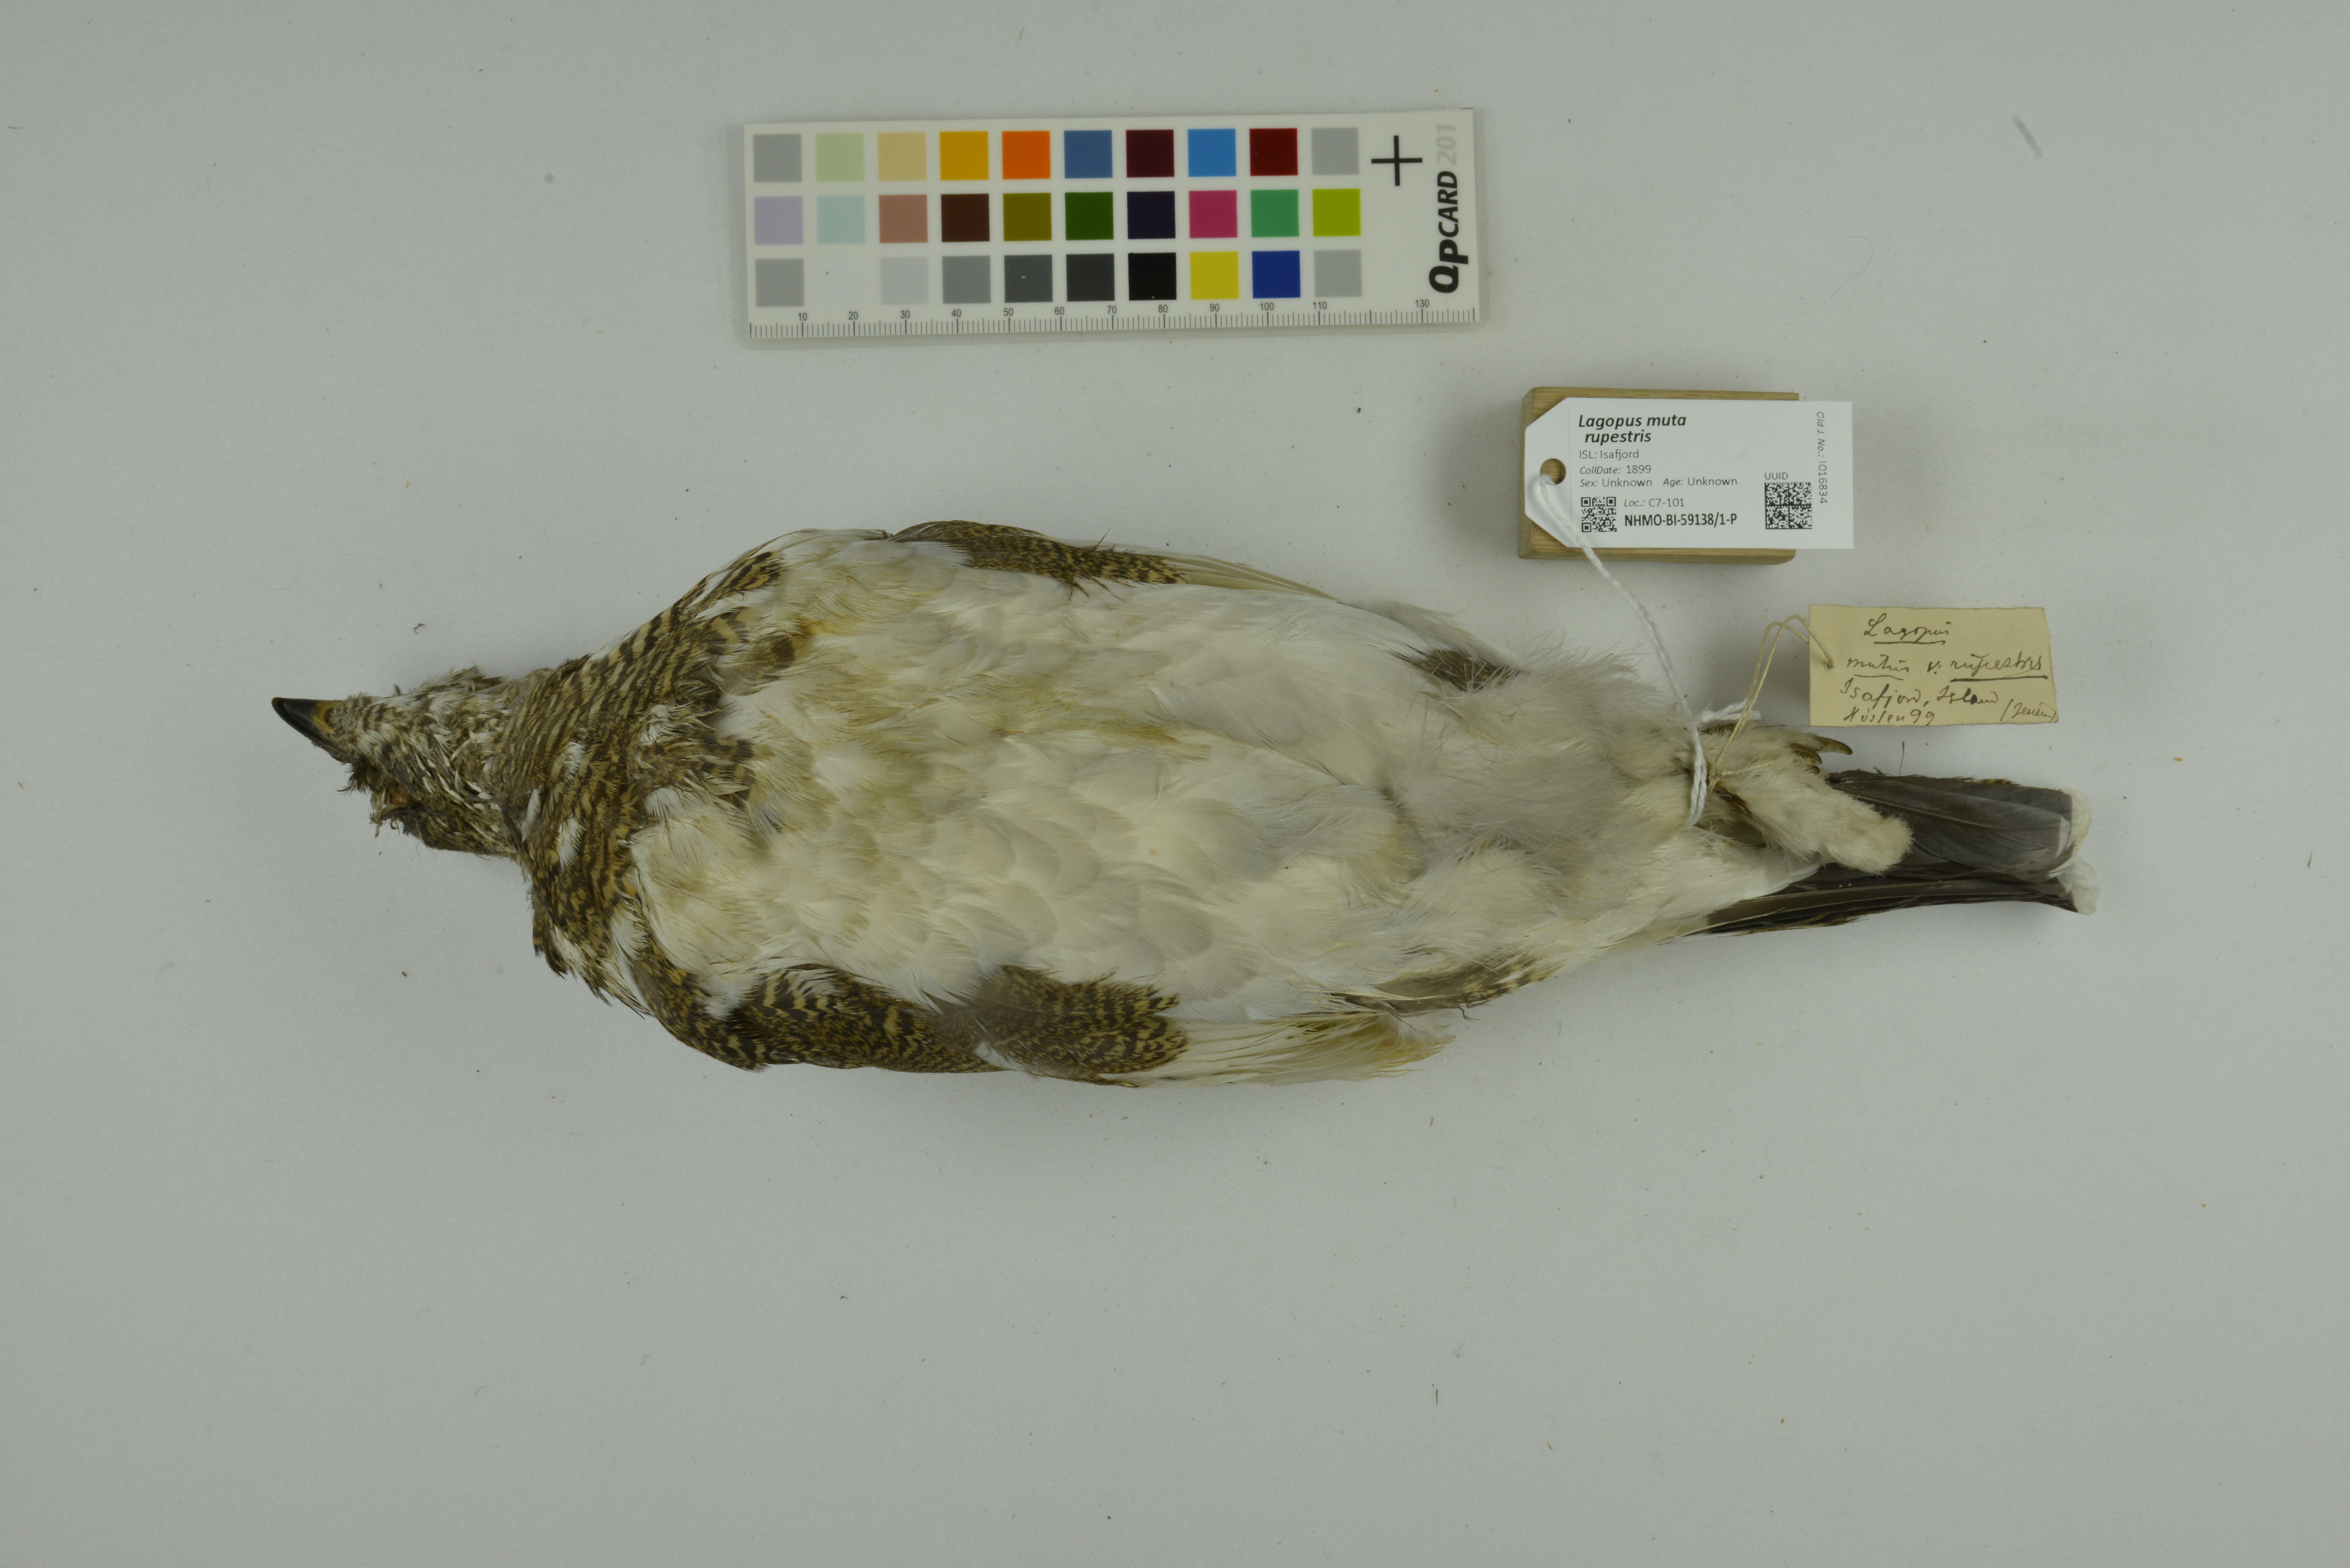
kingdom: Animalia
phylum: Chordata
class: Aves
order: Galliformes
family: Phasianidae
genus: Lagopus
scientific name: Lagopus muta
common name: Rock ptarmigan
